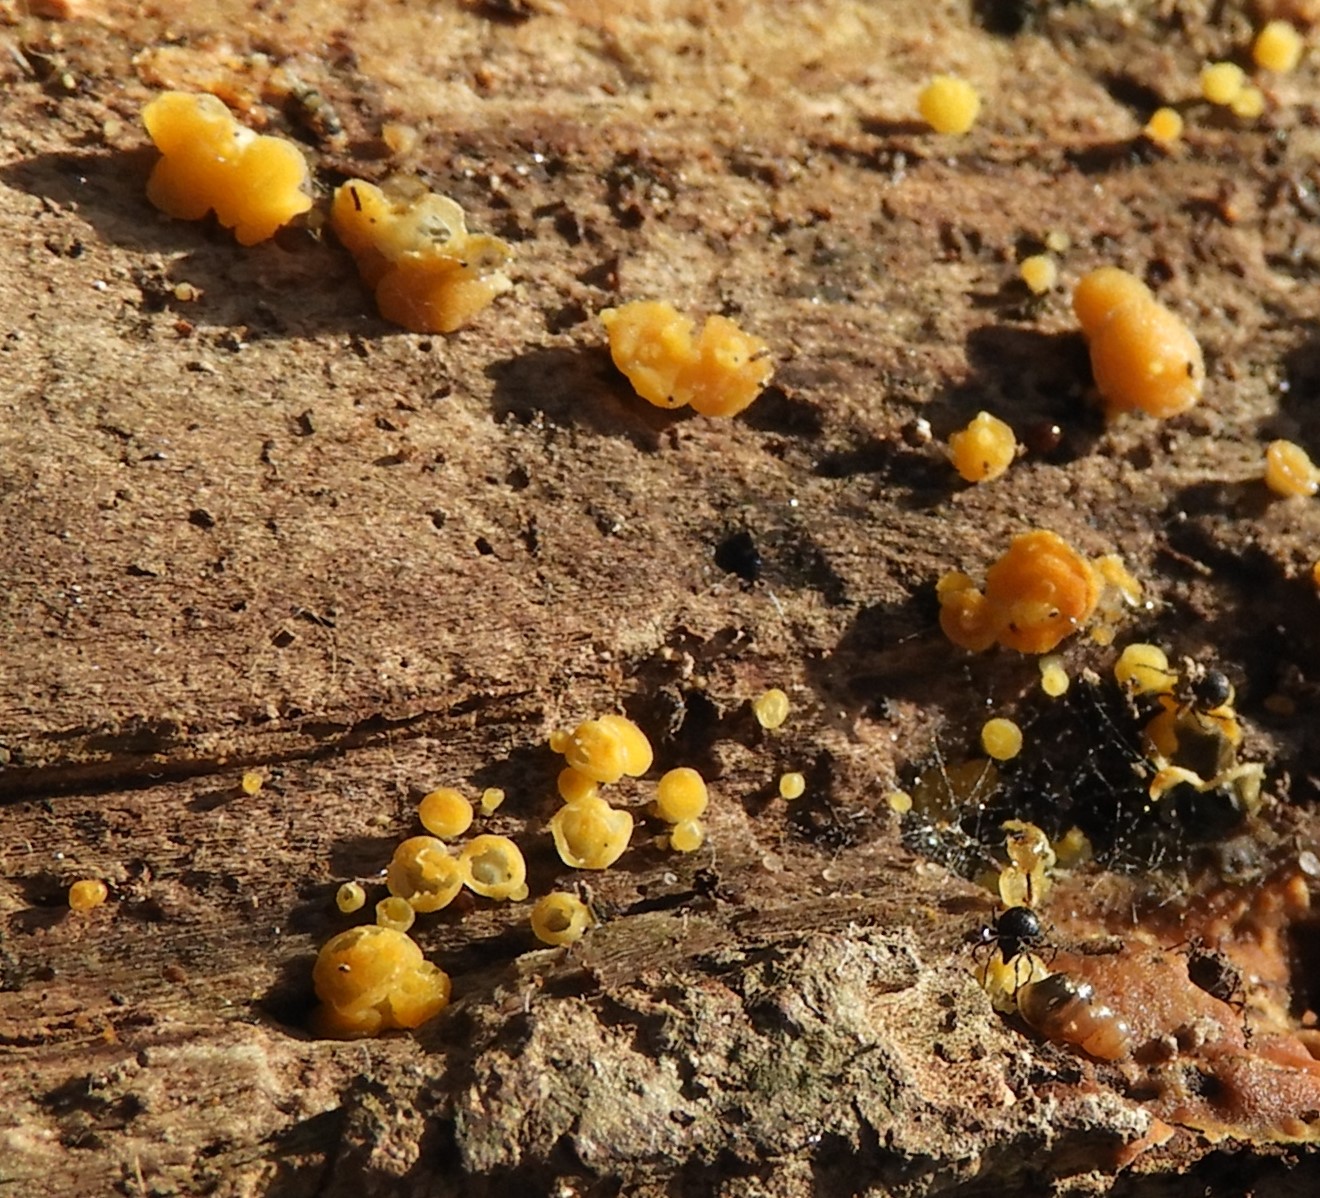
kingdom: Fungi
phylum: Ascomycota
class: Leotiomycetes
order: Helotiales
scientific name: Helotiales
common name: stilkskiveordenen
